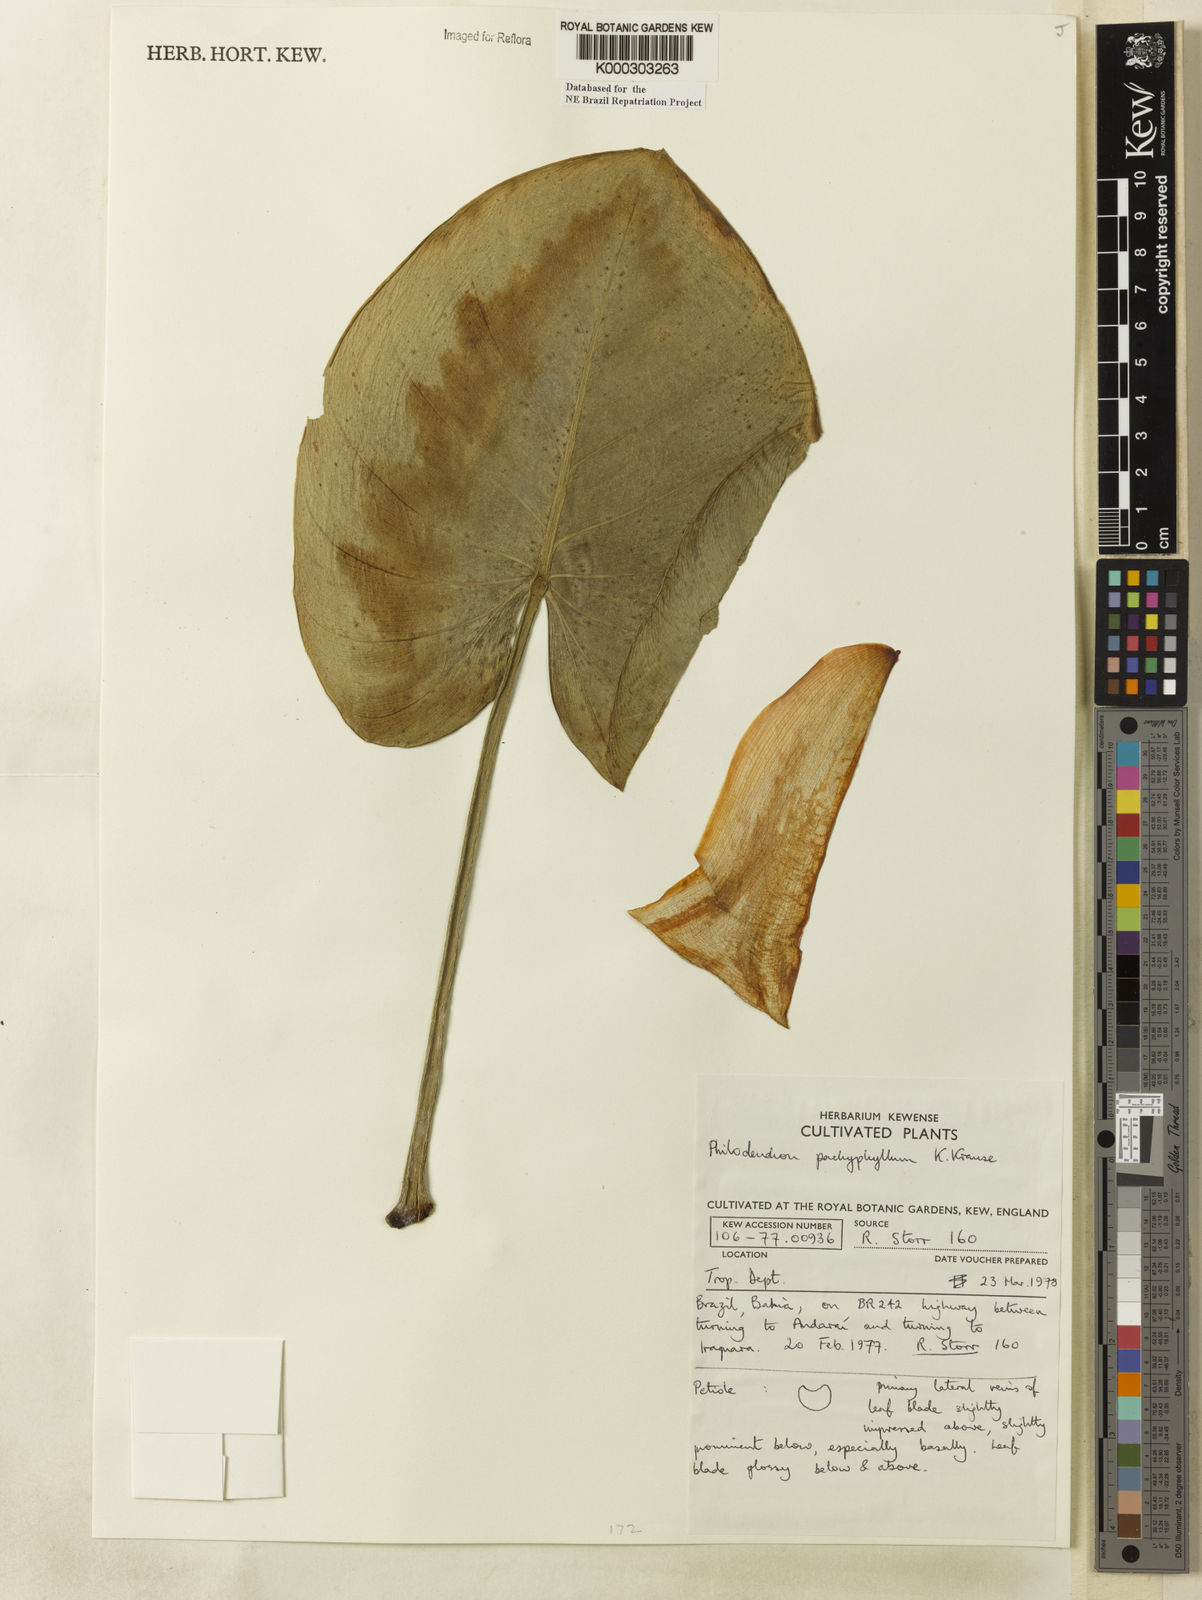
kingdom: Plantae
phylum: Tracheophyta
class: Liliopsida
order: Alismatales
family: Araceae
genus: Philodendron
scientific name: Philodendron pachyphyllum
